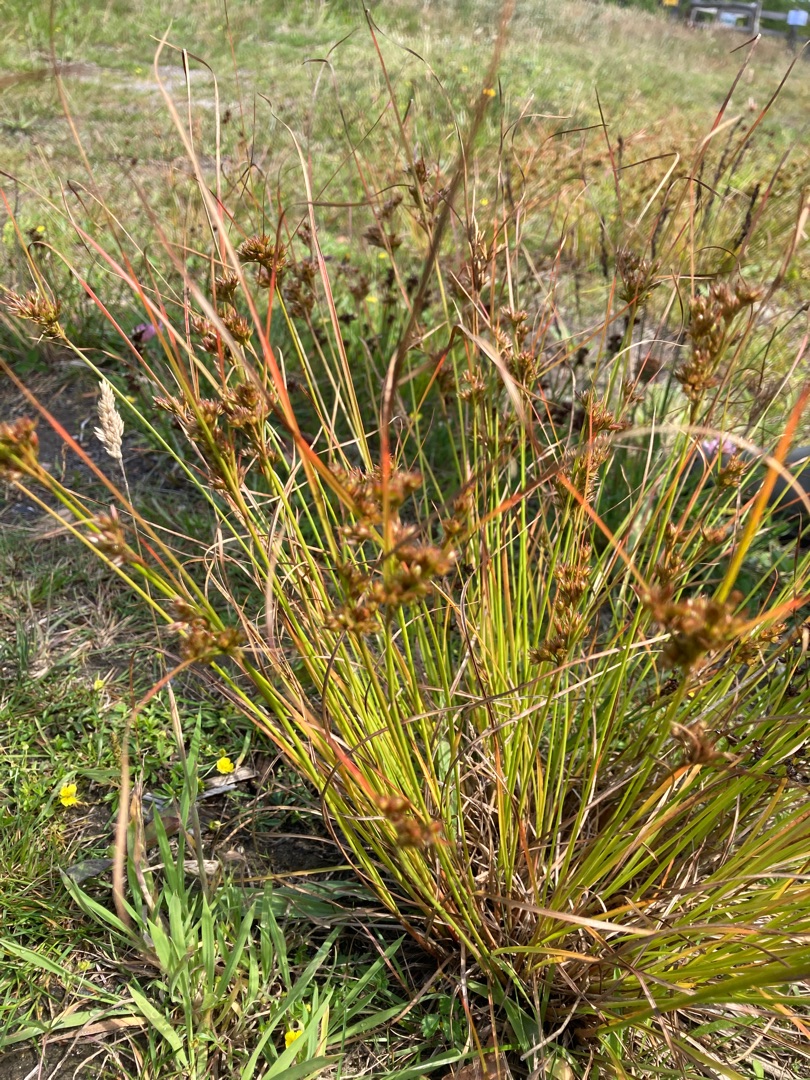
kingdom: Plantae
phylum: Tracheophyta
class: Liliopsida
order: Poales
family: Juncaceae
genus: Juncus
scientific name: Juncus tenuis
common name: Tue-siv
